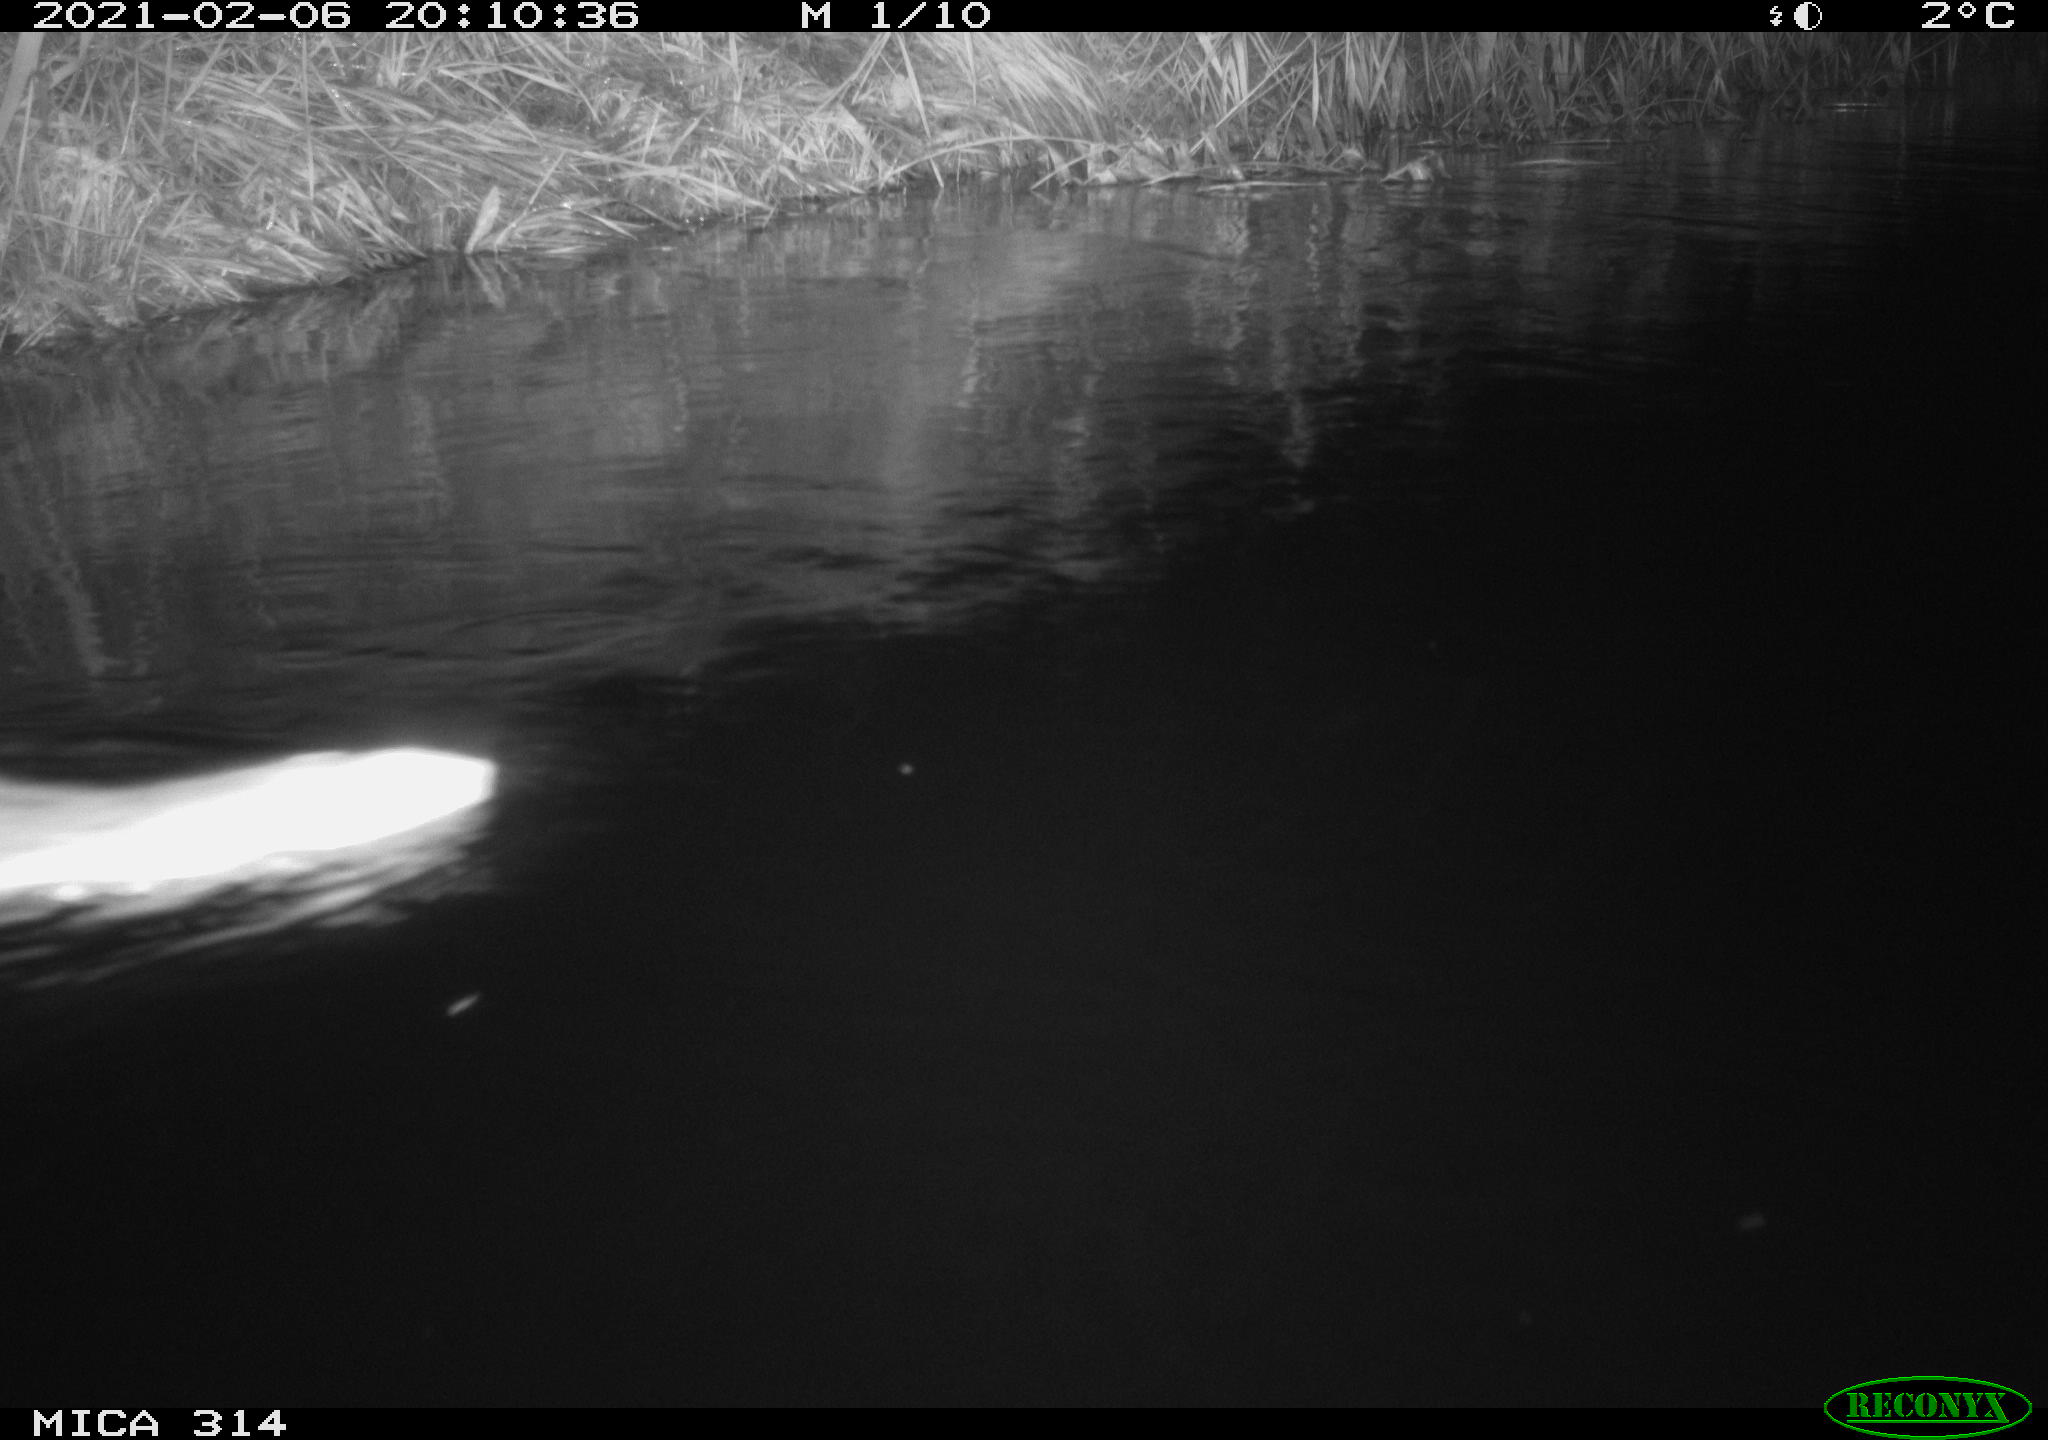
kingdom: Animalia
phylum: Chordata
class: Mammalia
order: Rodentia
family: Muridae
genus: Rattus
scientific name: Rattus norvegicus
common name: Brown rat
